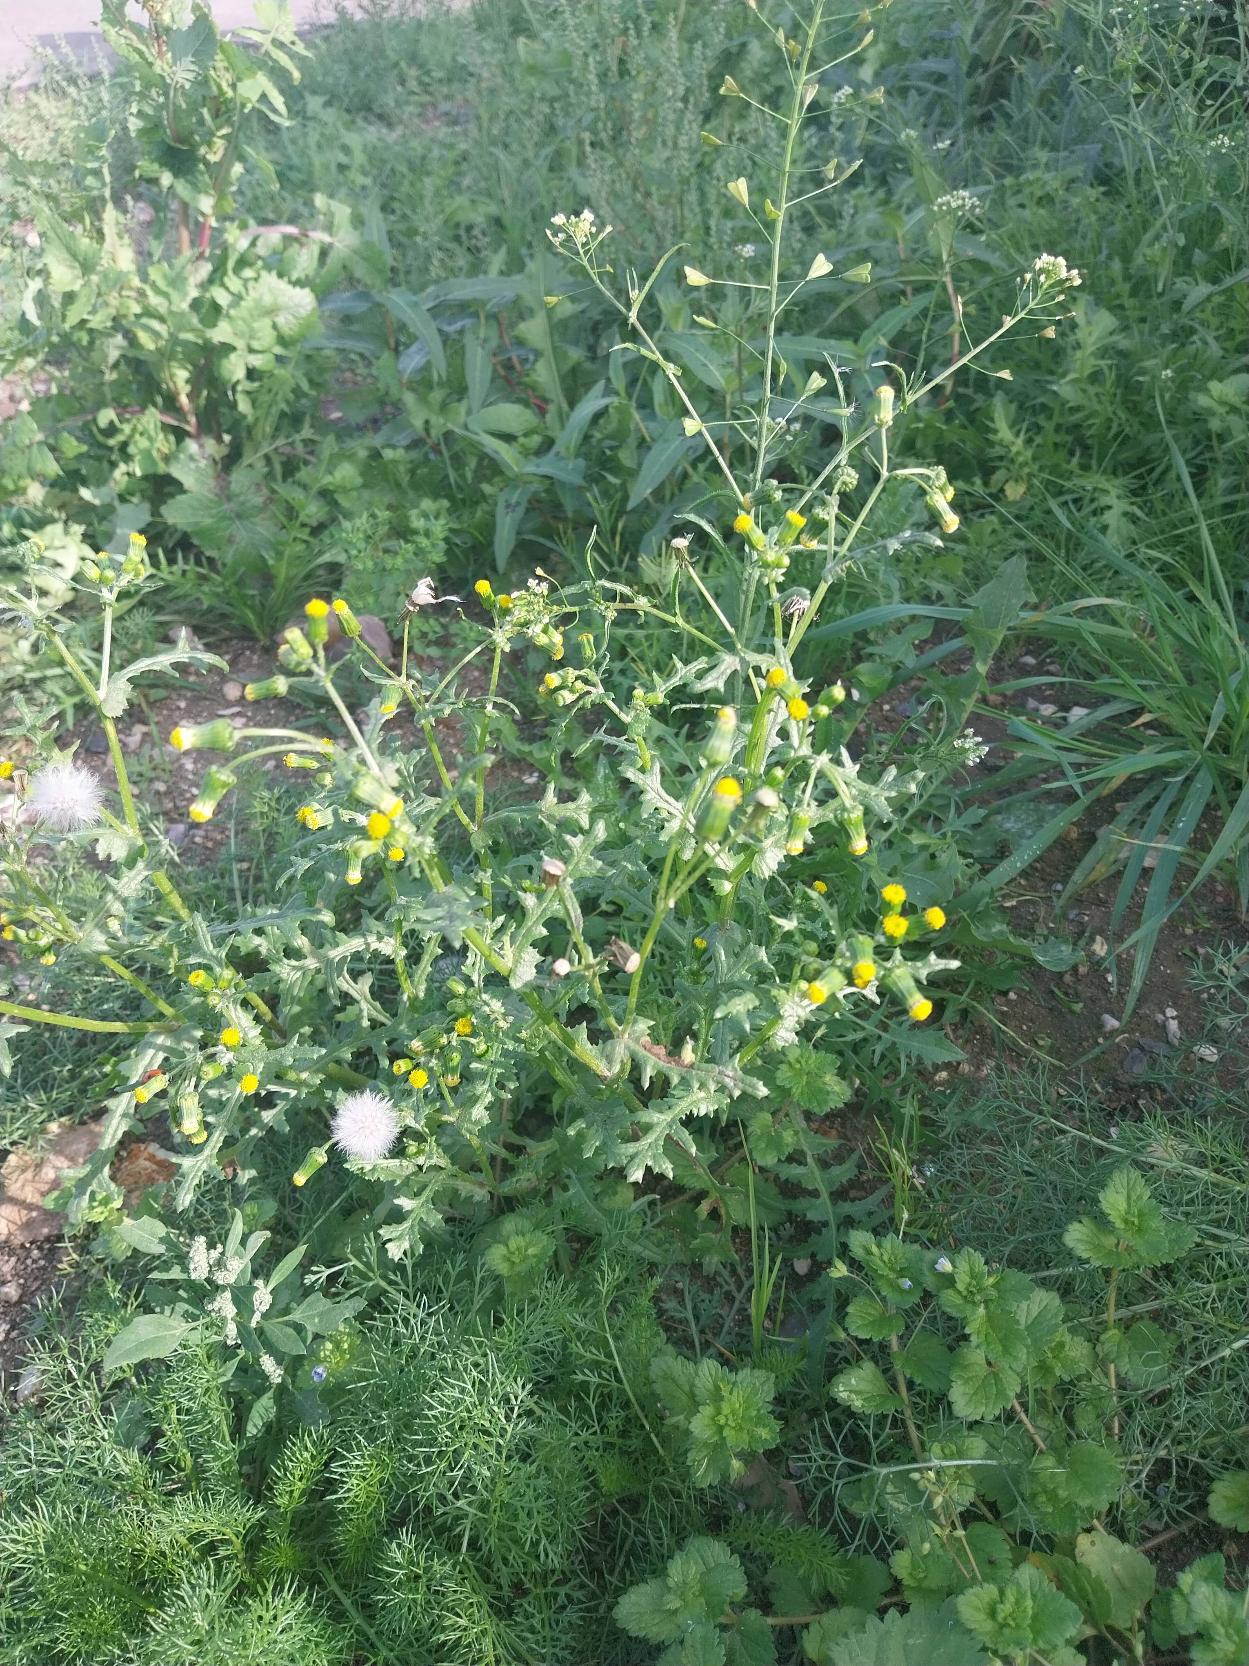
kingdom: Plantae
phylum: Tracheophyta
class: Magnoliopsida
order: Asterales
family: Asteraceae
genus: Senecio
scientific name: Senecio vulgaris
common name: Almindelig brandbæger
